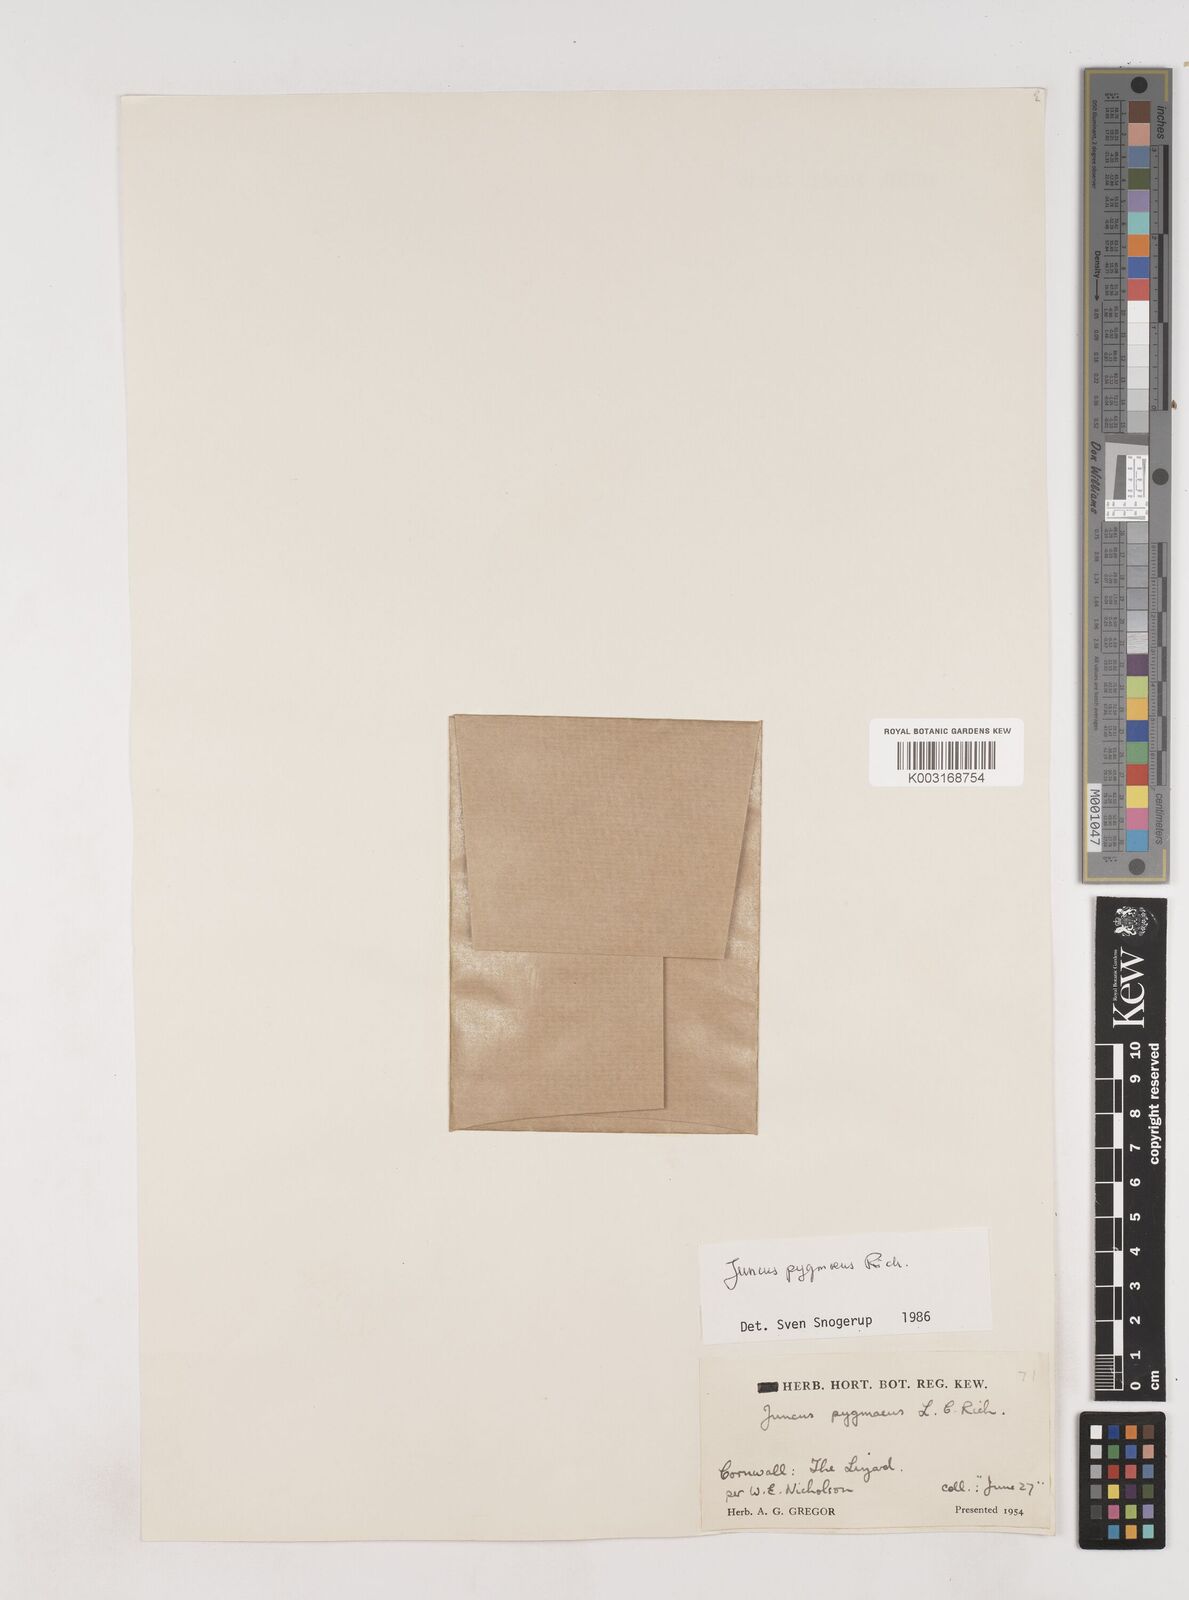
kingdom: Plantae
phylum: Tracheophyta
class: Liliopsida
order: Poales
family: Juncaceae
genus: Juncus
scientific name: Juncus pygmaeus
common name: Pigmy rush
